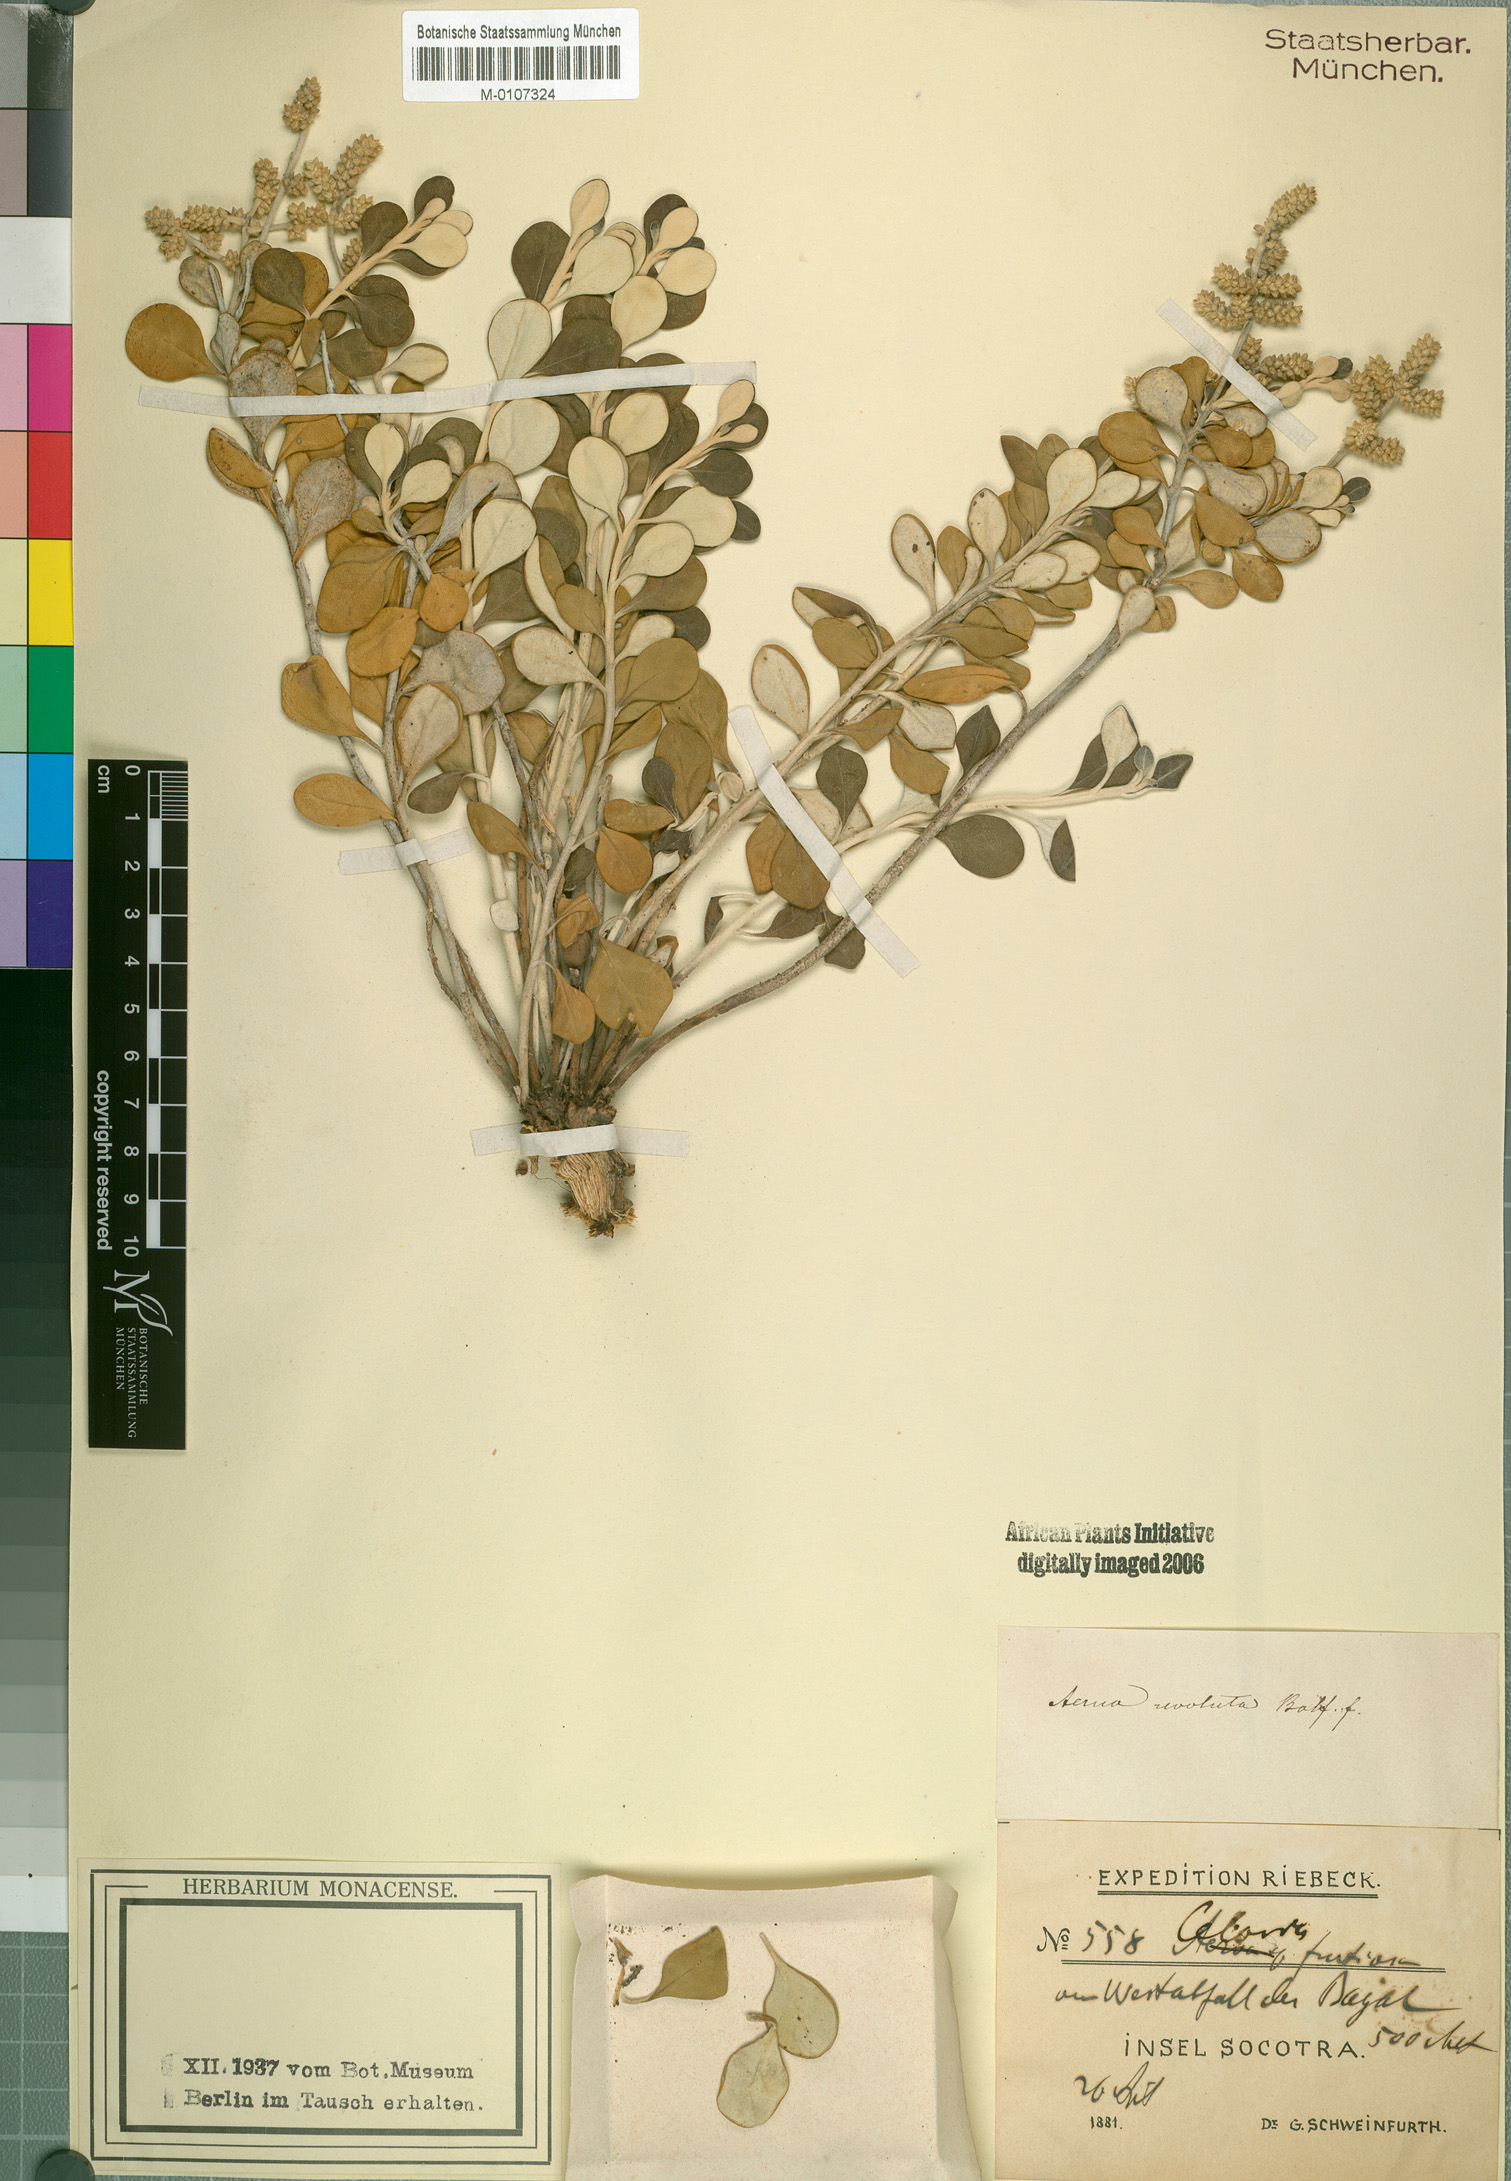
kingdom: Plantae
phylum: Tracheophyta
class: Magnoliopsida
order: Caryophyllales
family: Amaranthaceae
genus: Paraerva
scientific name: Paraerva revoluta
